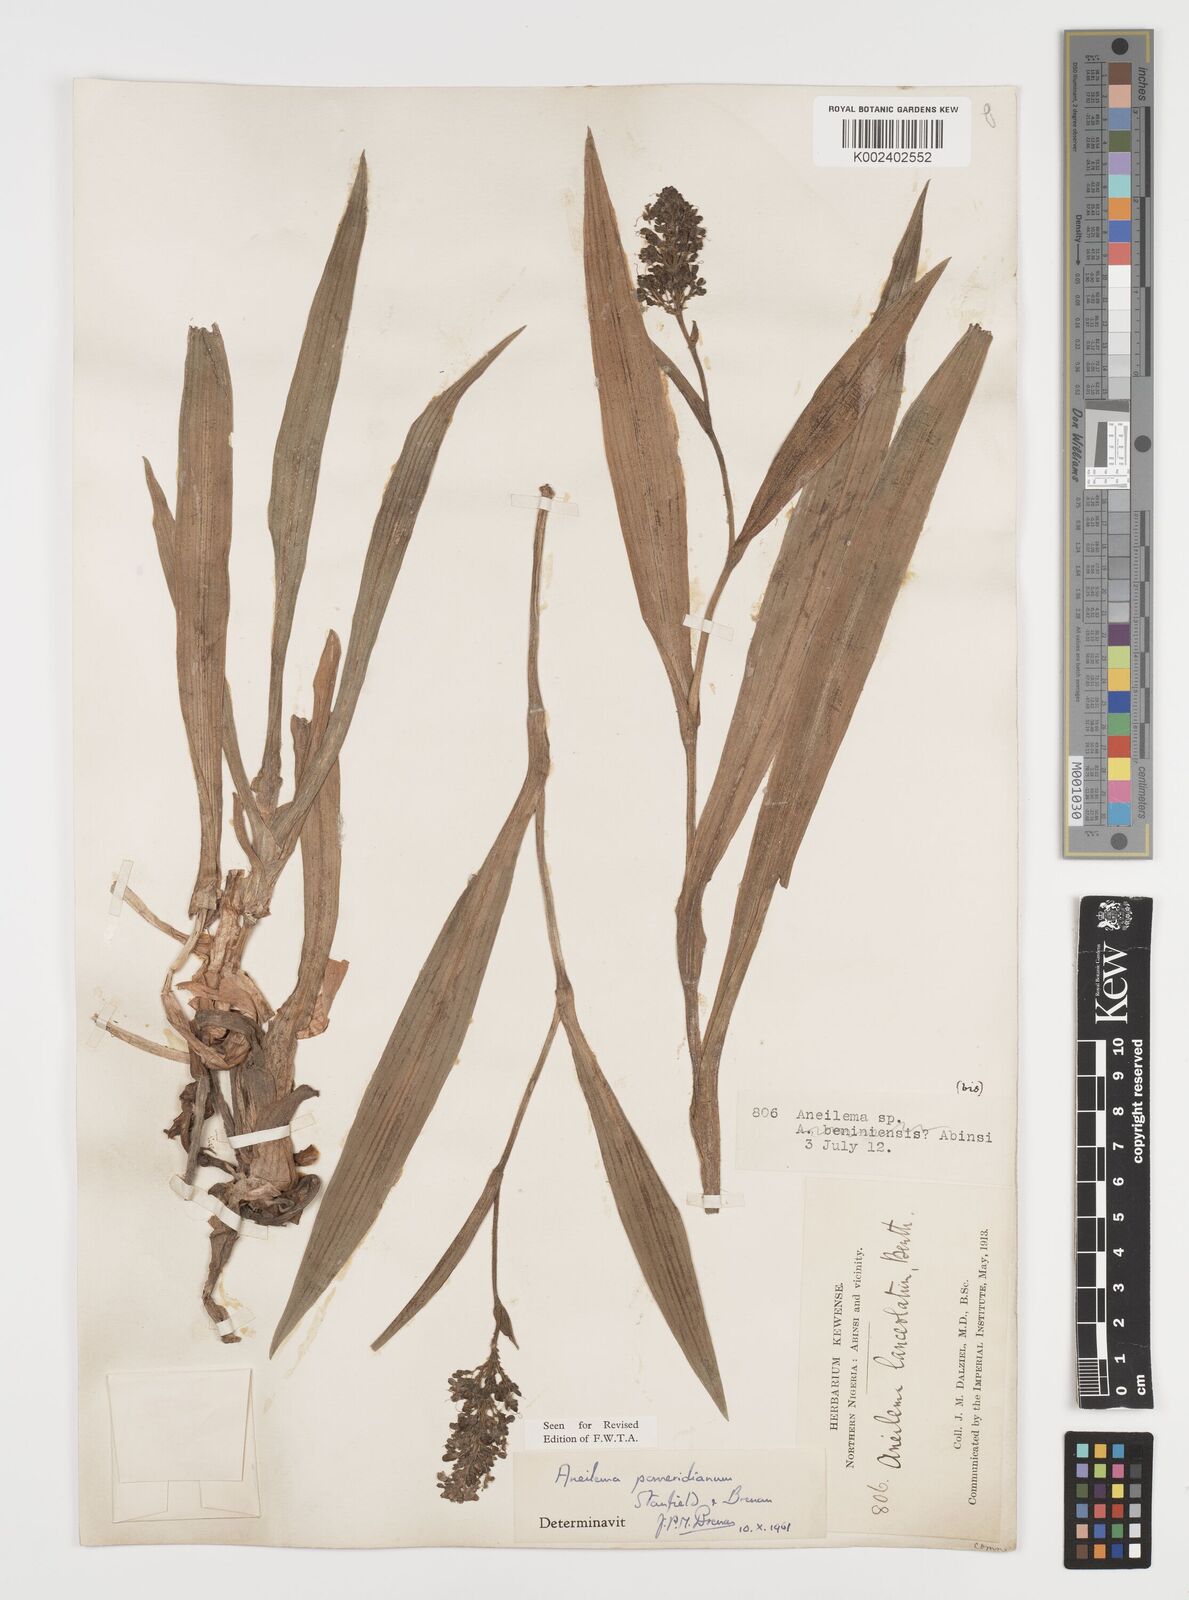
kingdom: Plantae
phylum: Tracheophyta
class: Liliopsida
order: Commelinales
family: Commelinaceae
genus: Aneilema
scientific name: Aneilema pomeridianum
